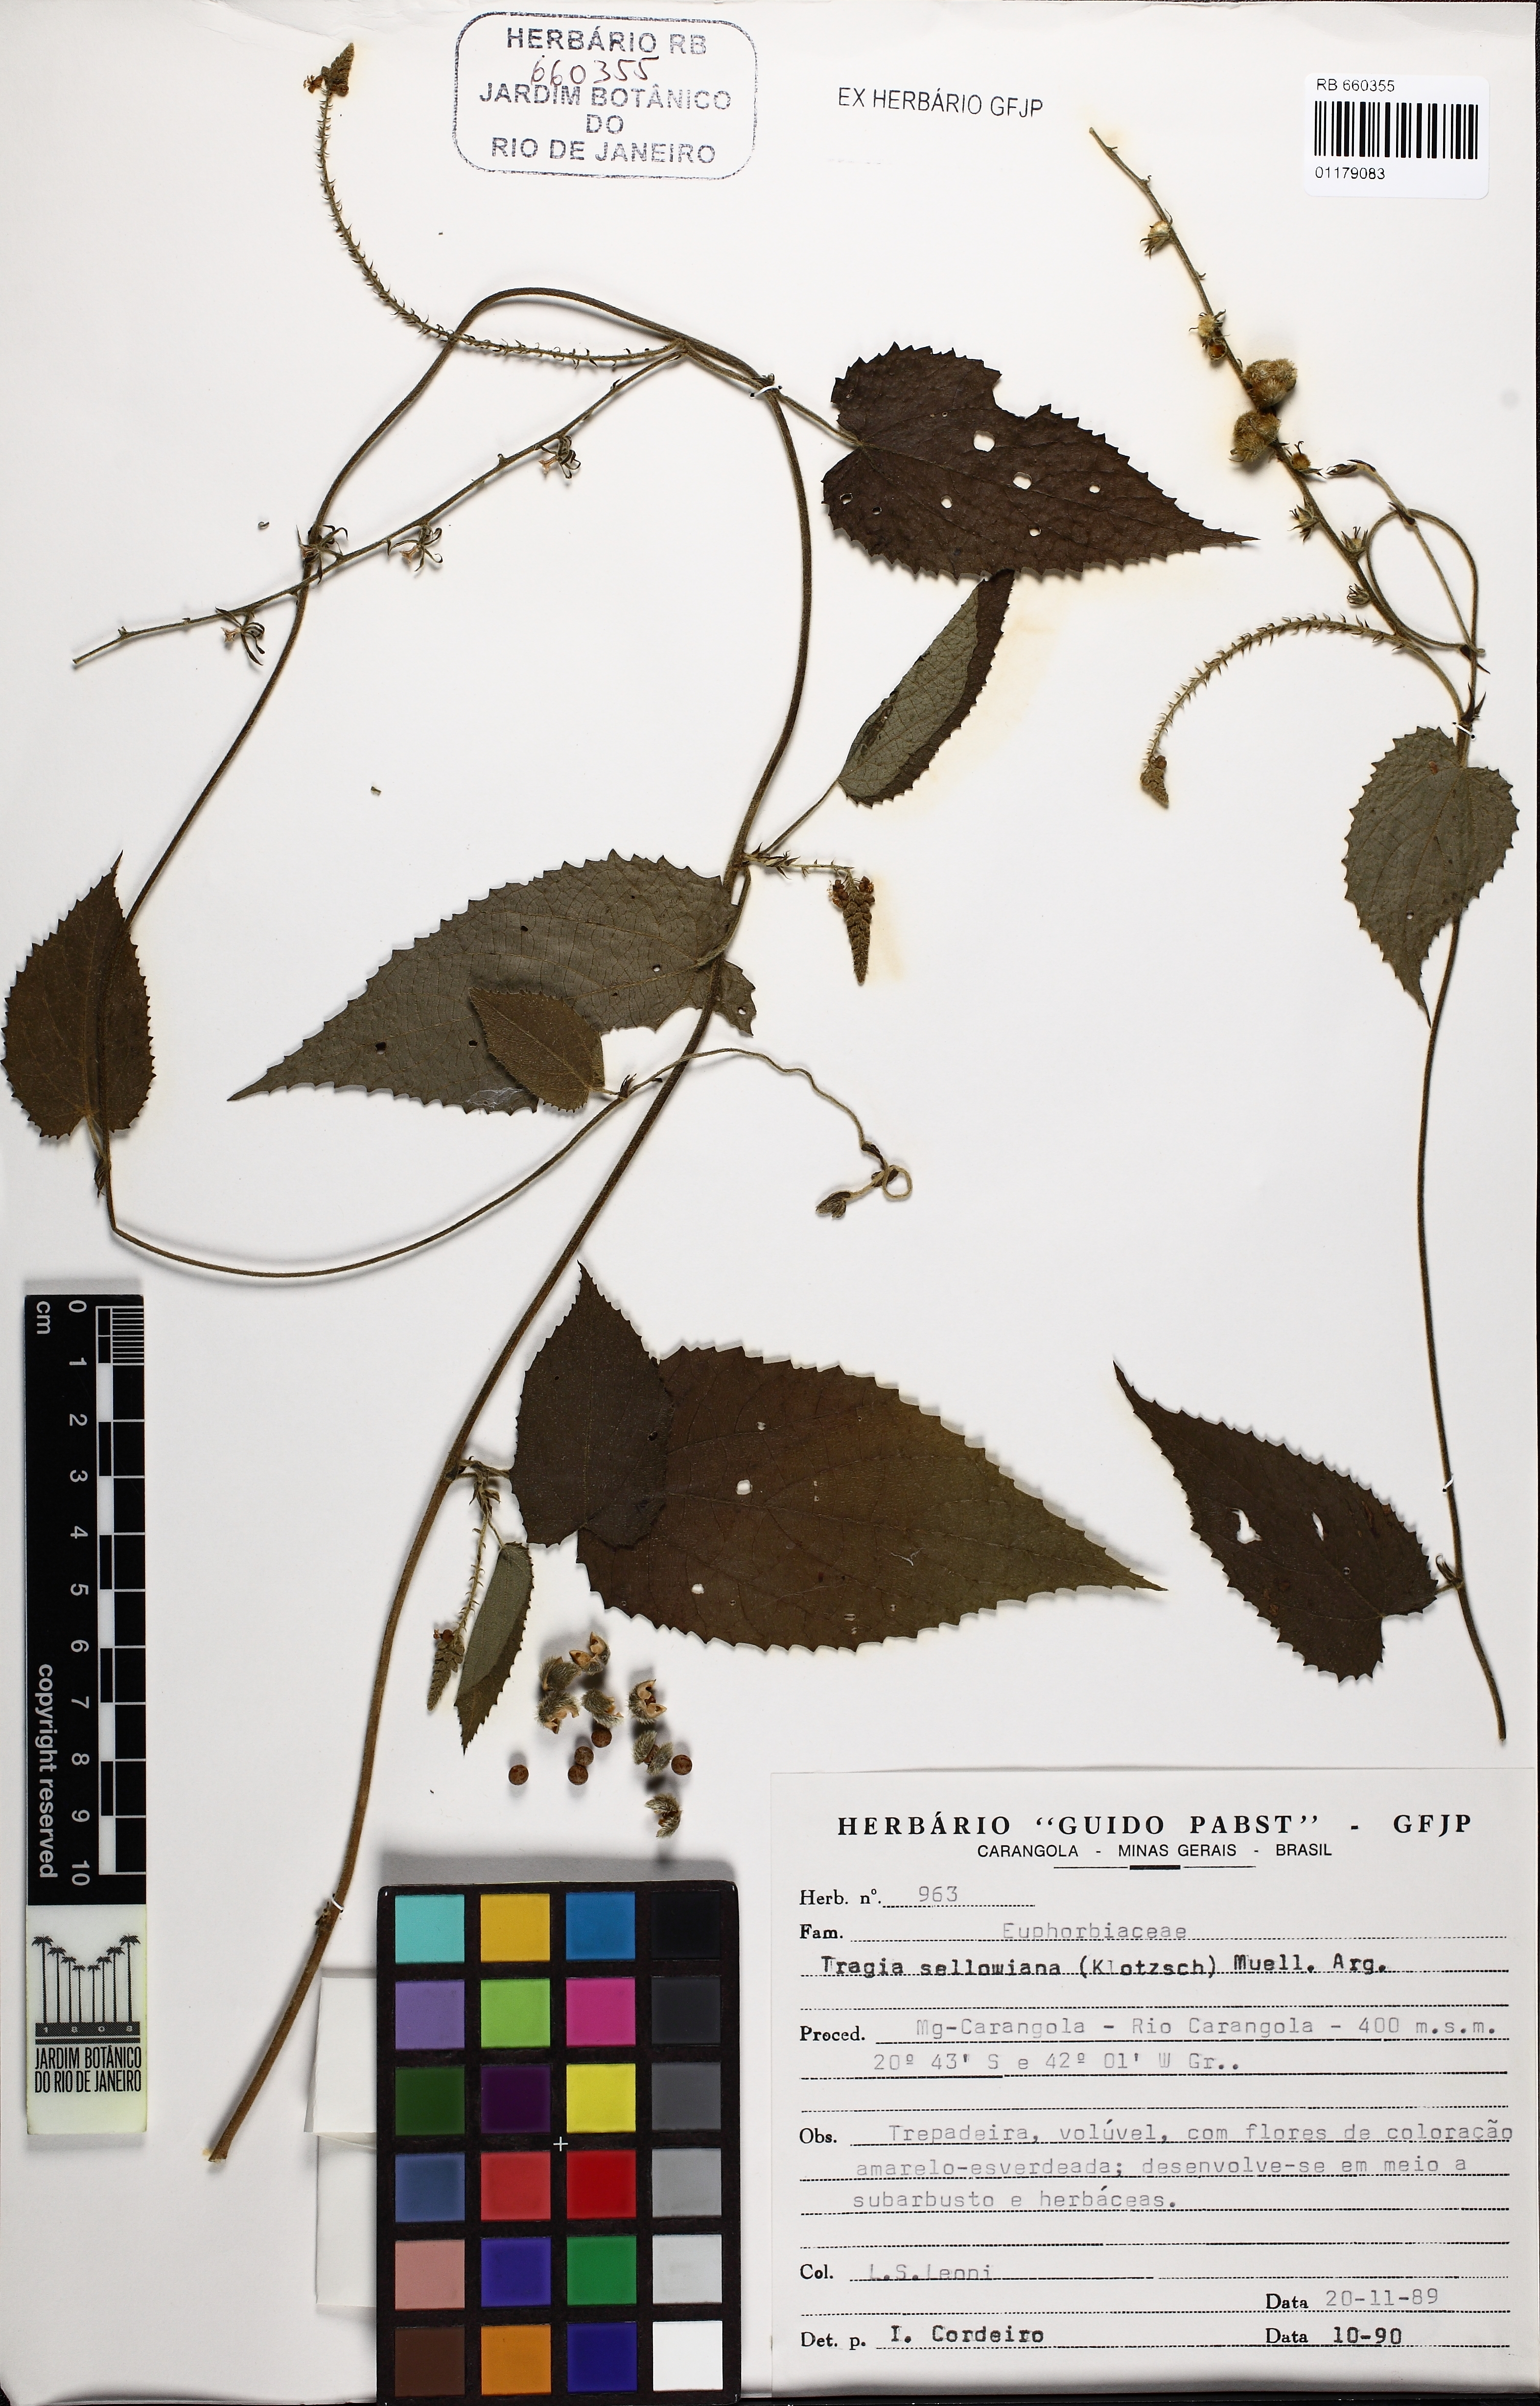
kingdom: Plantae
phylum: Tracheophyta
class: Magnoliopsida
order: Malpighiales
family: Euphorbiaceae
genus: Bia
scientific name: Bia alienata
